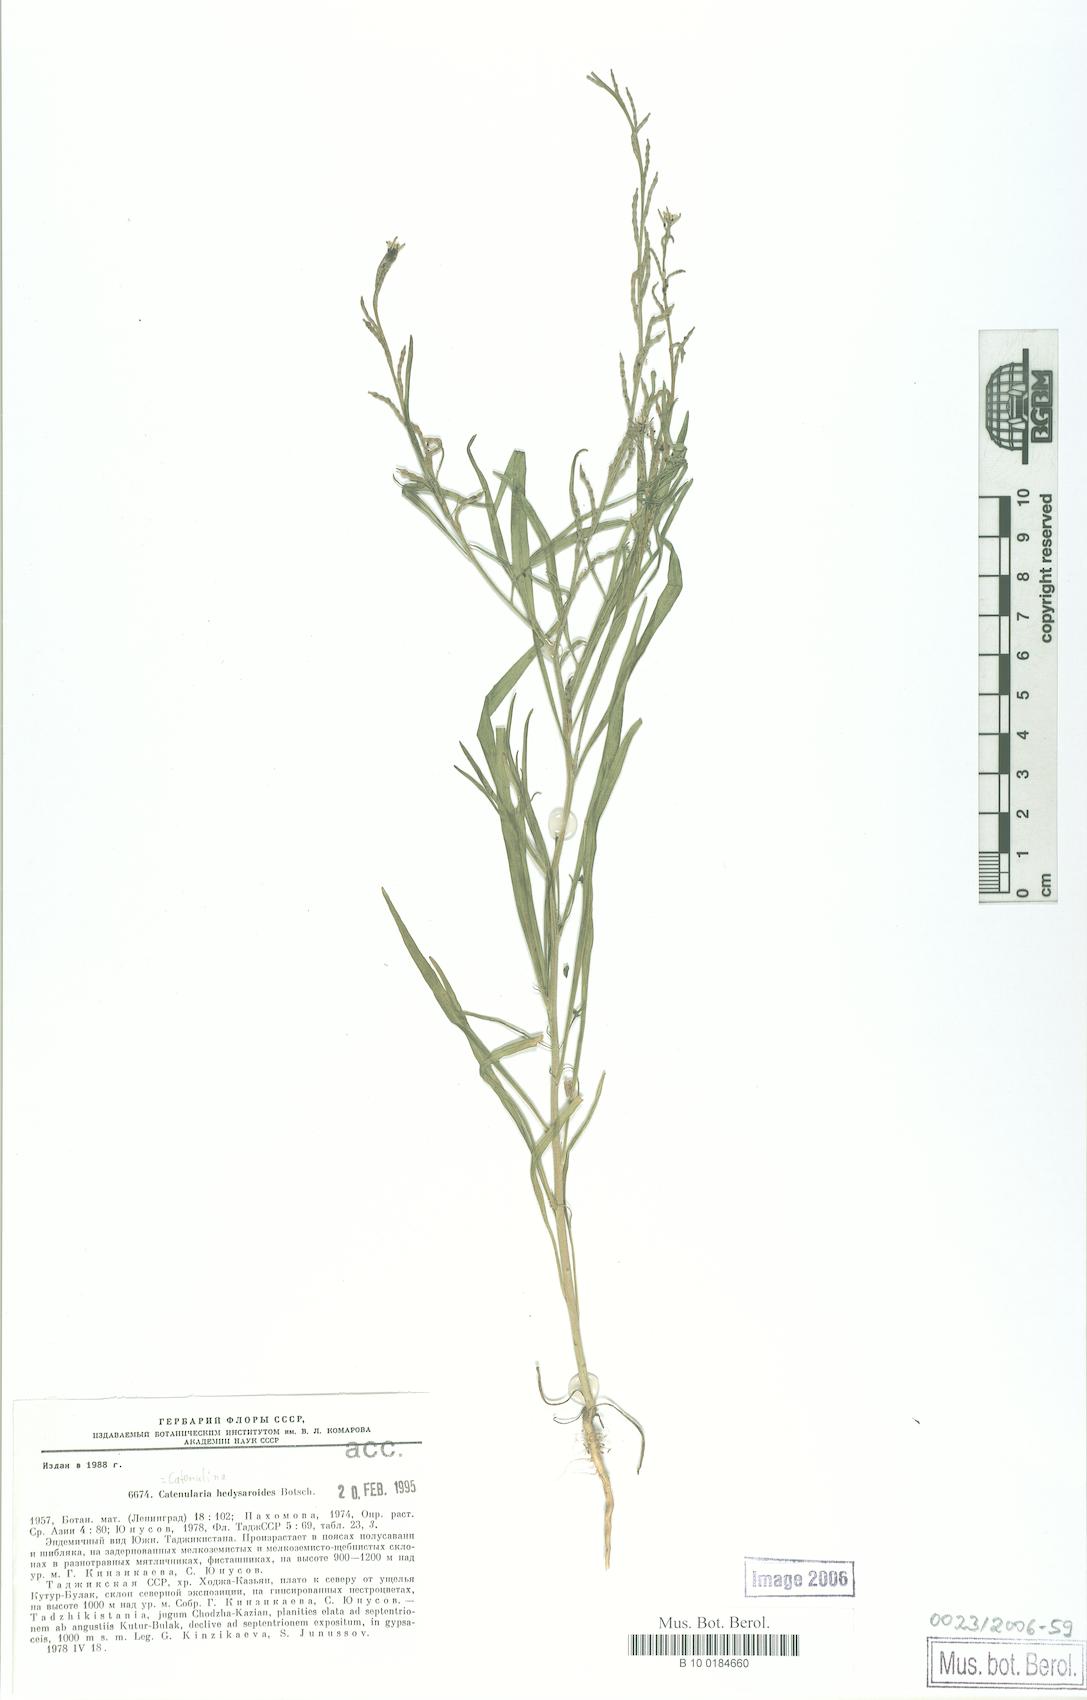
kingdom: Plantae
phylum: Tracheophyta
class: Magnoliopsida
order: Brassicales
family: Brassicaceae
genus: Catenulina
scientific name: Catenulina hedysaroides
